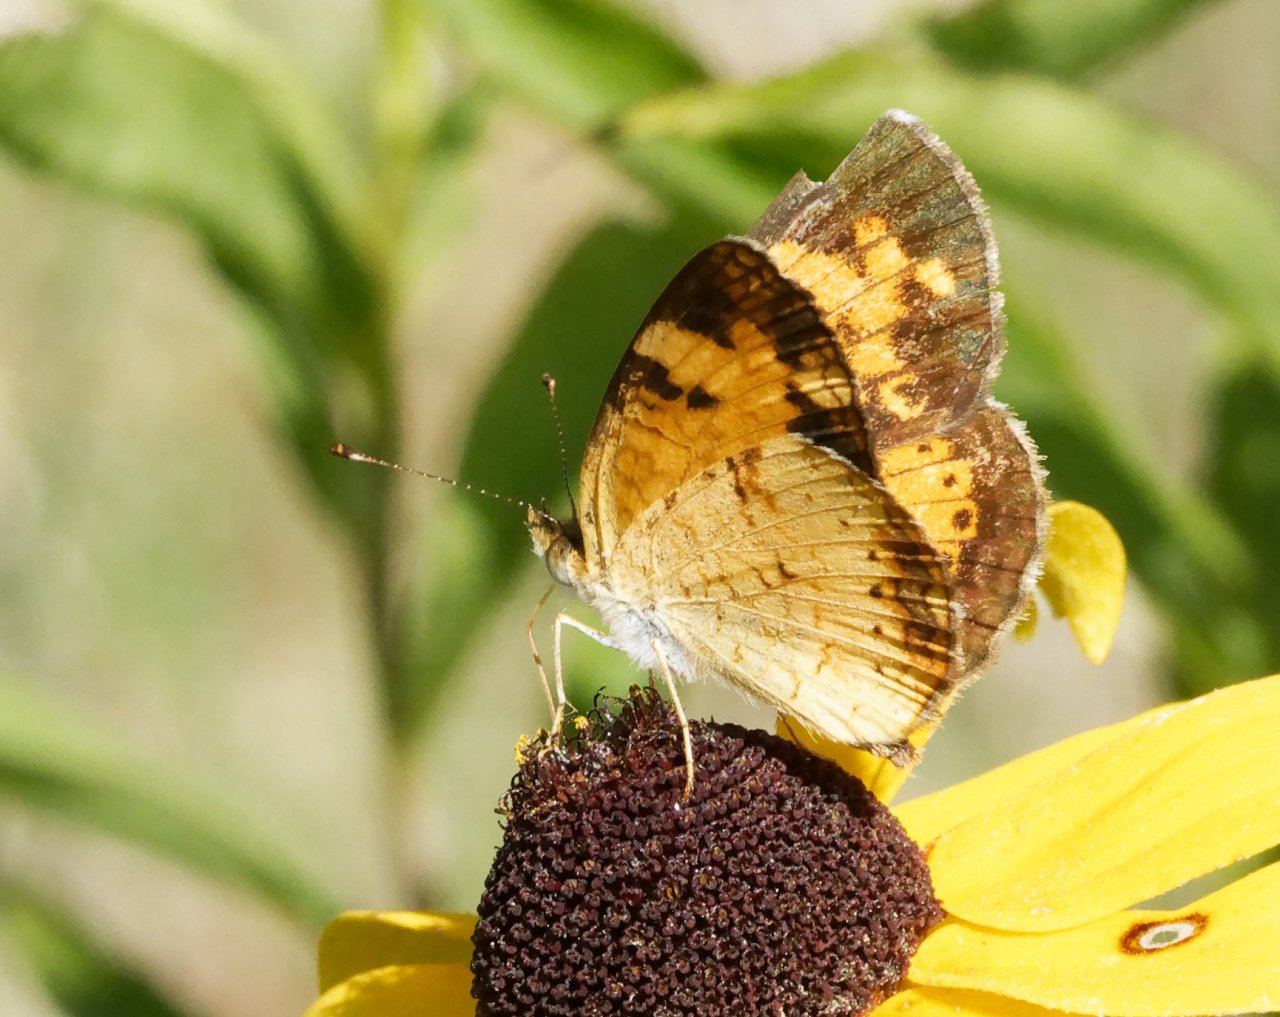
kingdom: Animalia
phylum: Arthropoda
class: Insecta
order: Lepidoptera
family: Nymphalidae
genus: Phyciodes
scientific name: Phyciodes
